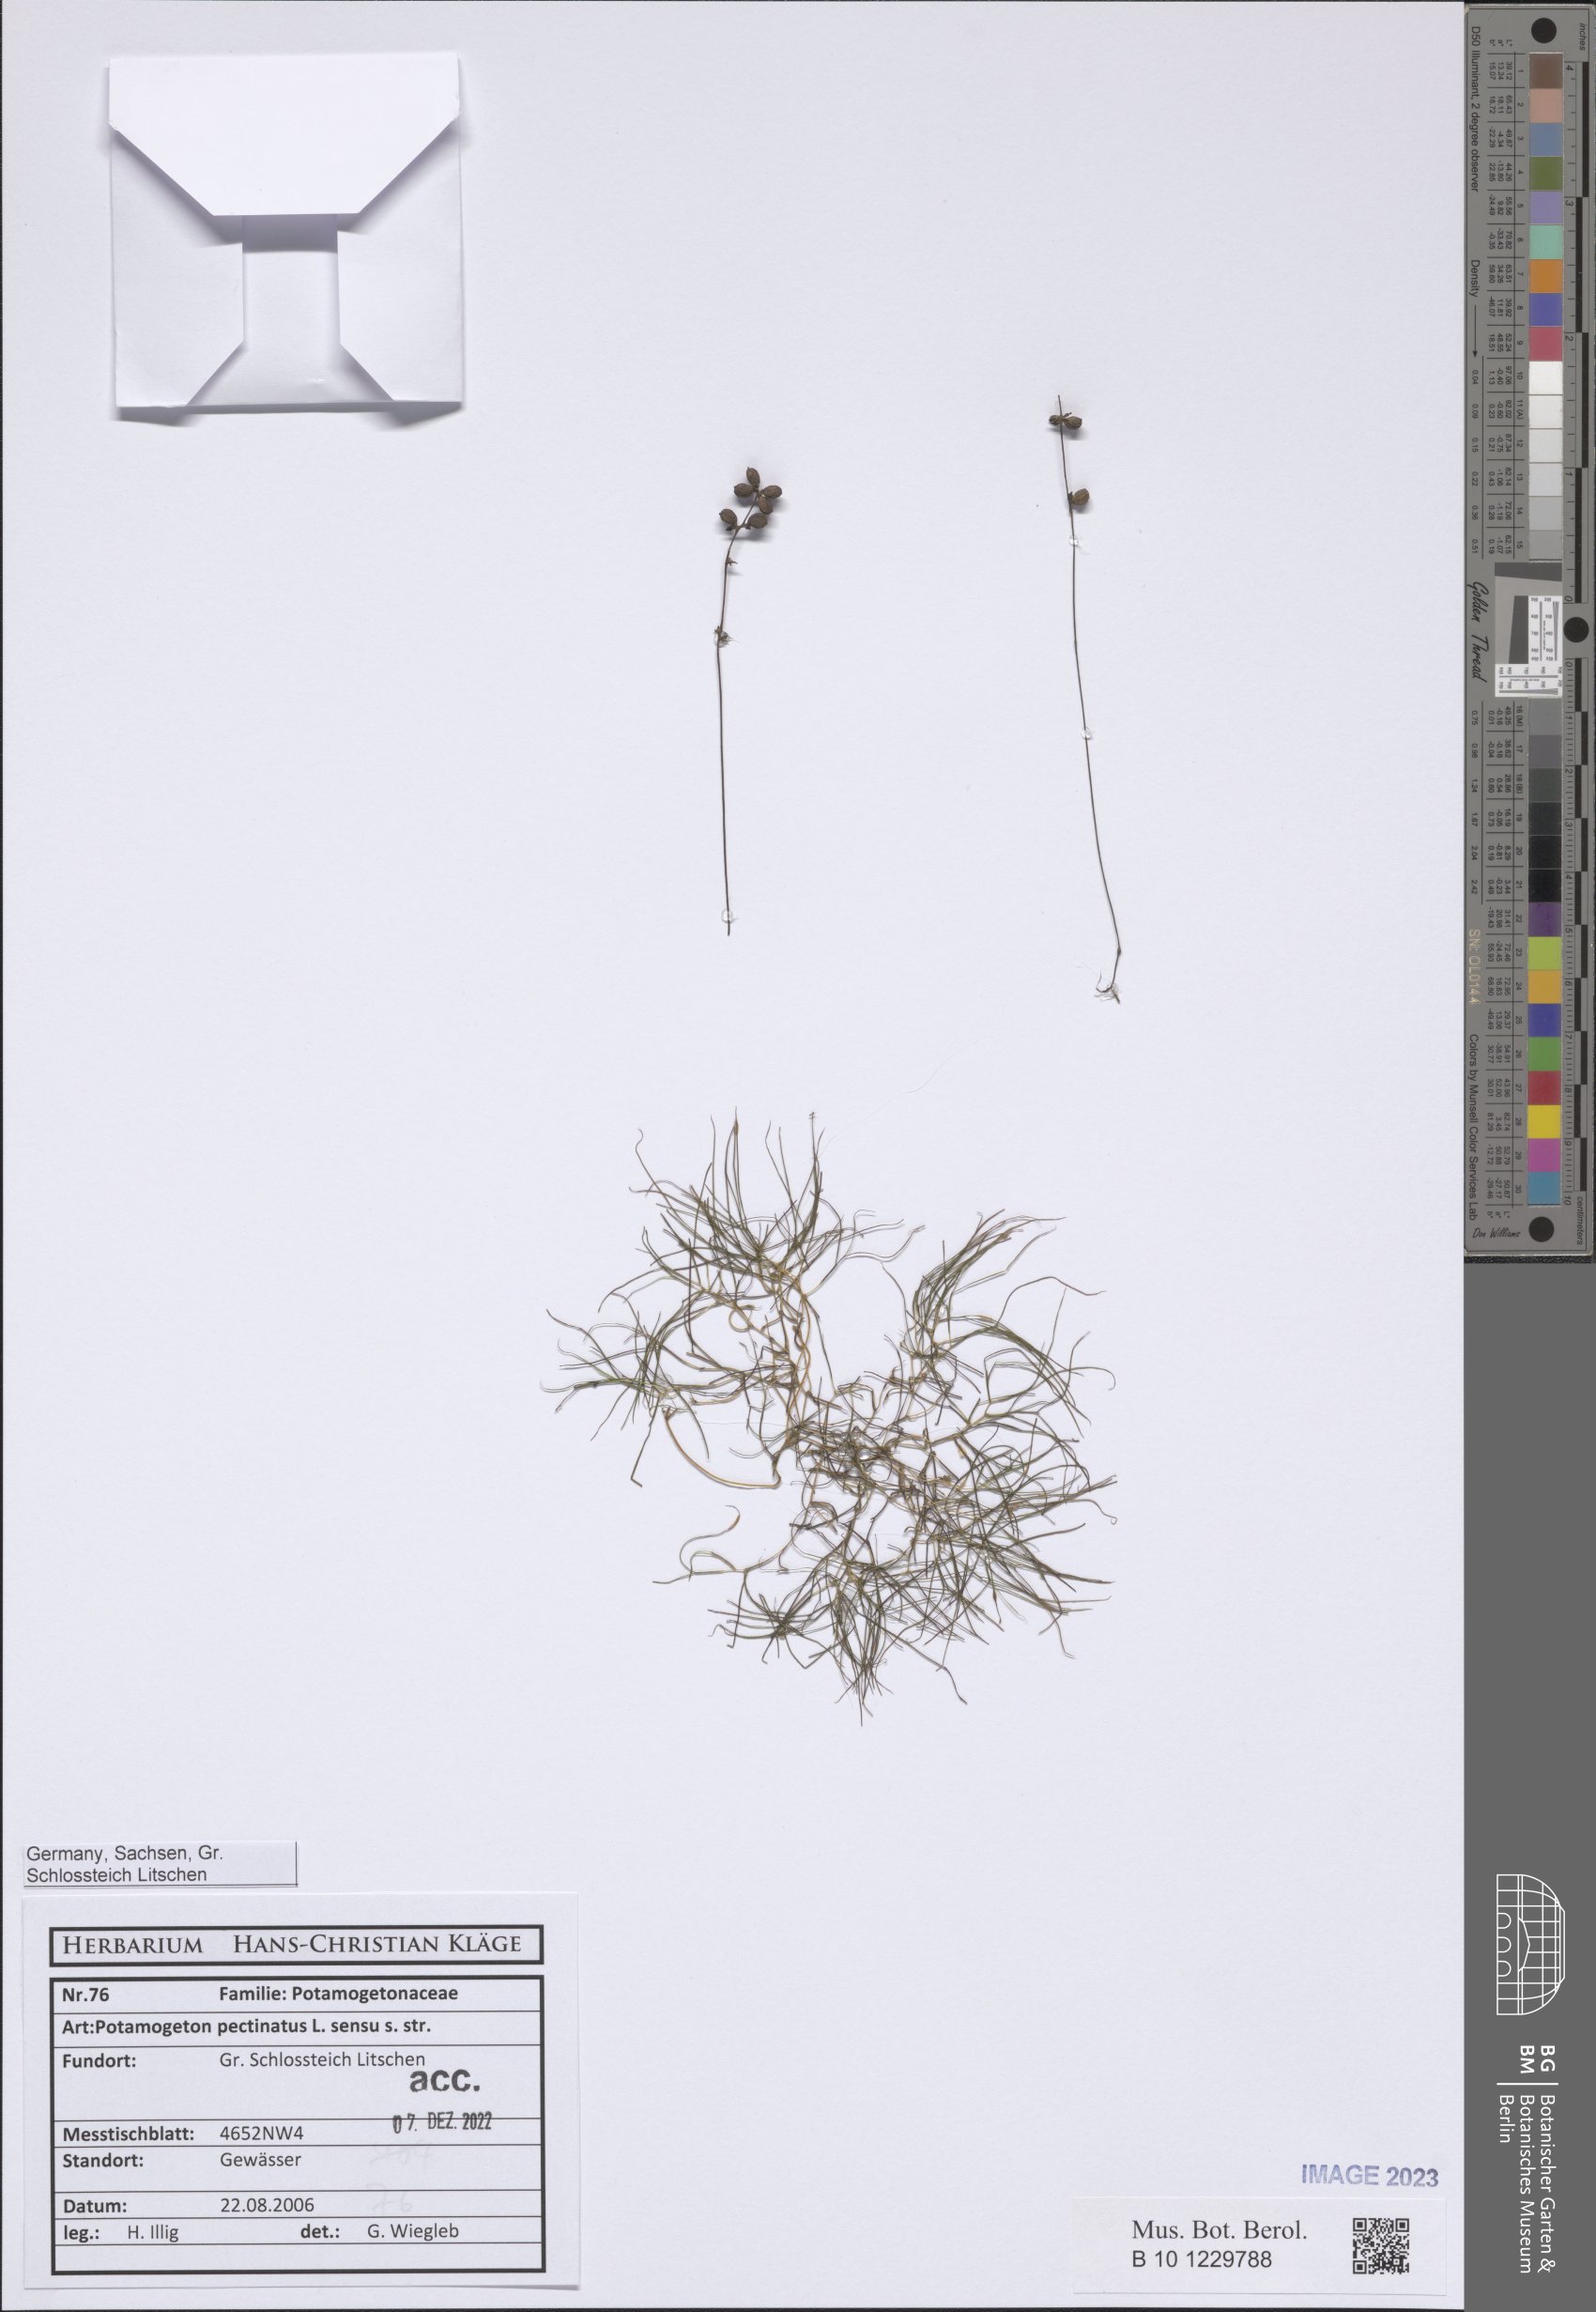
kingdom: Plantae
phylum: Tracheophyta
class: Liliopsida
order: Alismatales
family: Potamogetonaceae
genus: Stuckenia
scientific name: Stuckenia pectinata
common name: Sago pondweed
